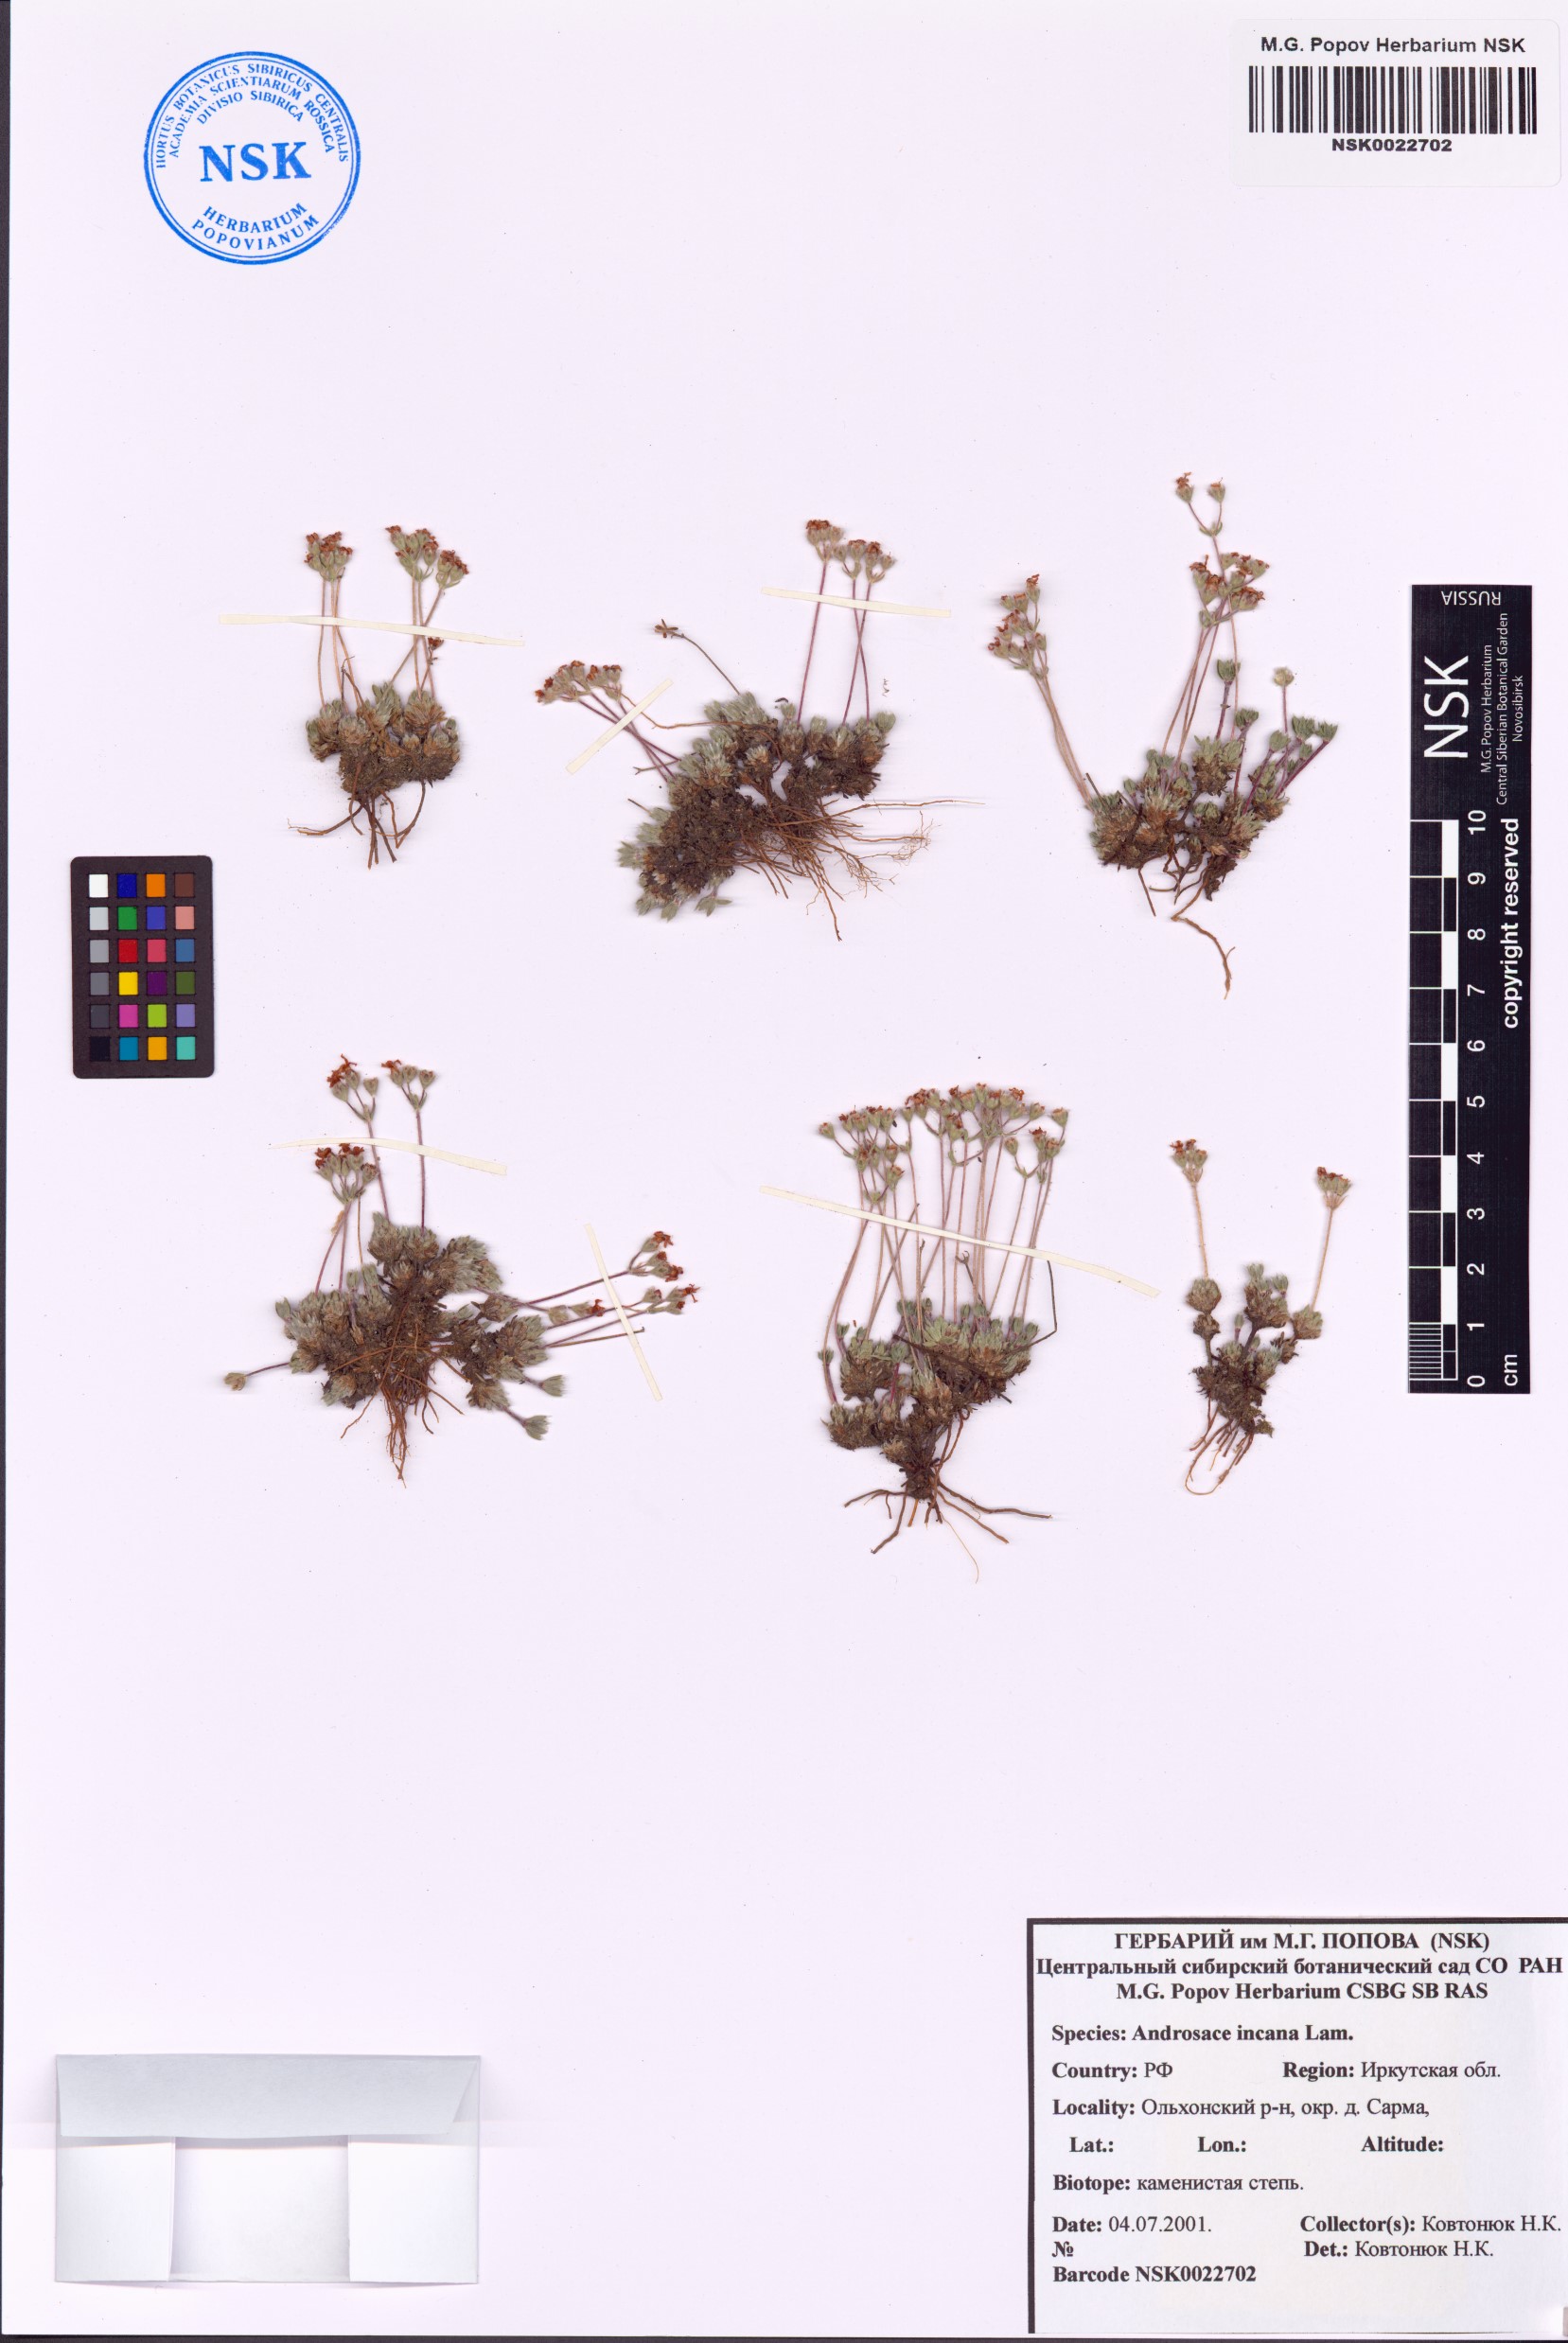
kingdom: Plantae
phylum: Tracheophyta
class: Magnoliopsida
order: Ericales
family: Primulaceae
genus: Androsace
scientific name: Androsace incana
